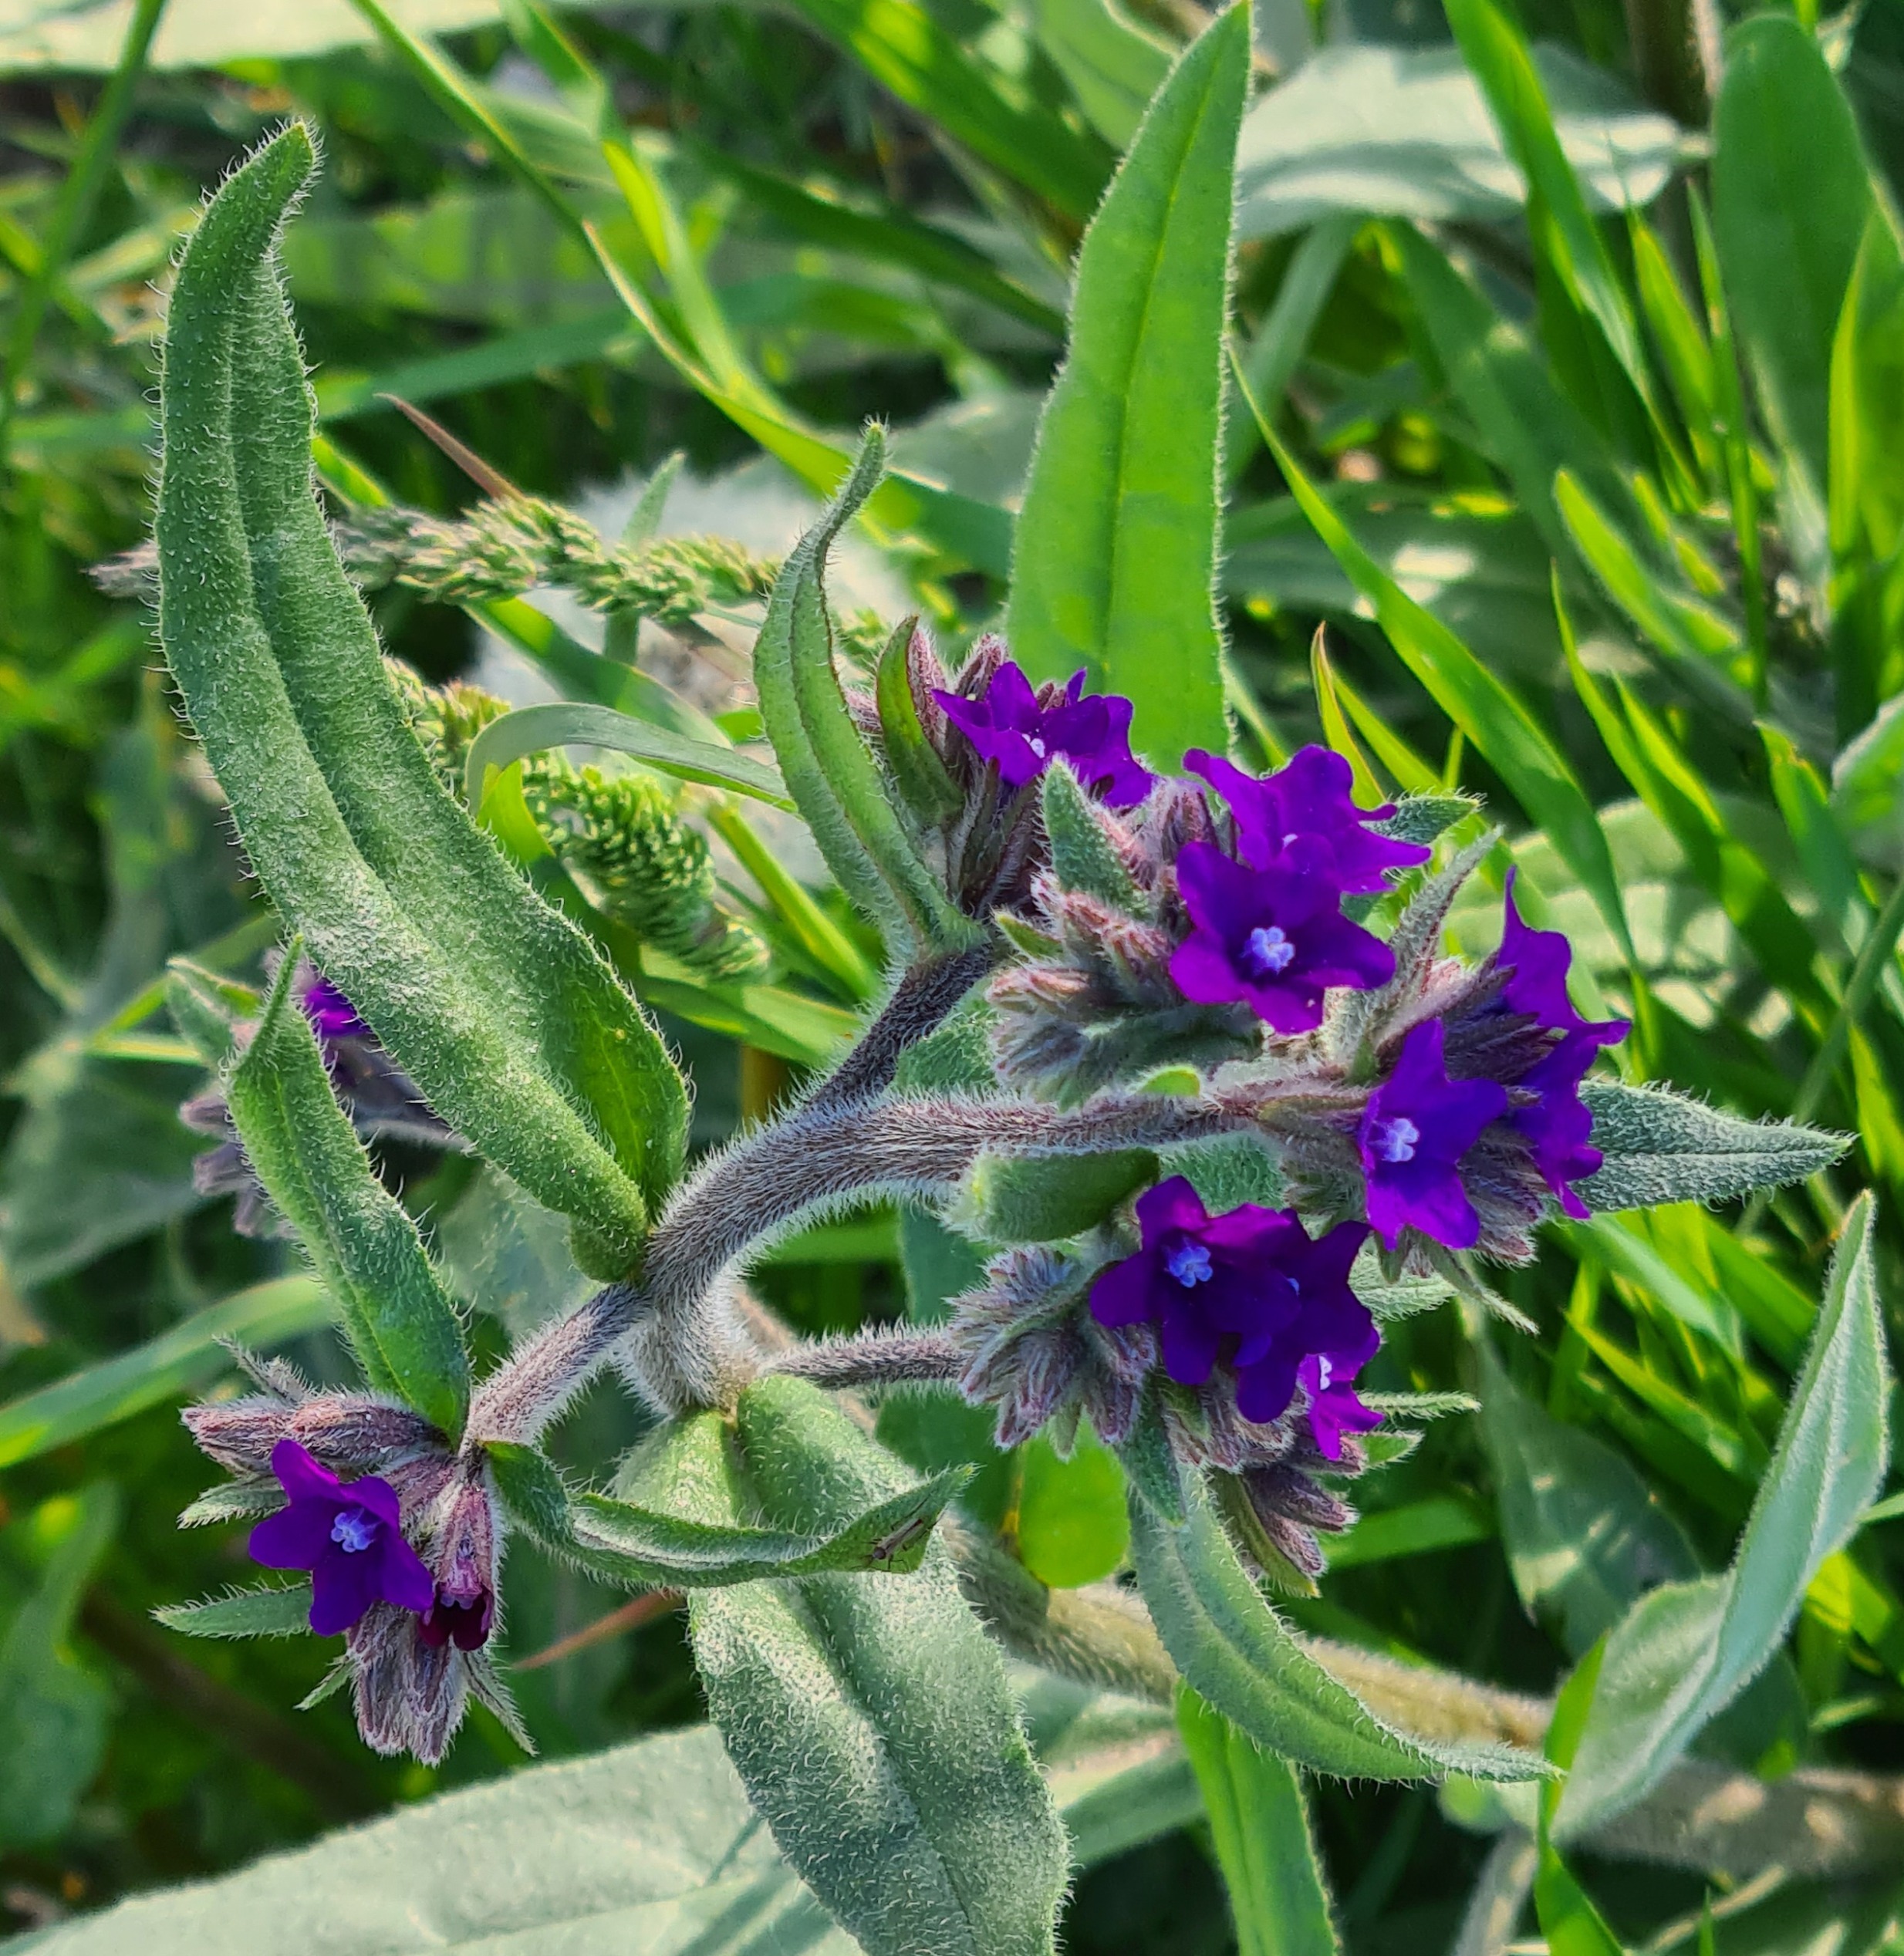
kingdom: Plantae
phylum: Tracheophyta
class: Magnoliopsida
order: Boraginales
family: Boraginaceae
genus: Anchusa
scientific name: Anchusa officinalis
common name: Læge-oksetunge
